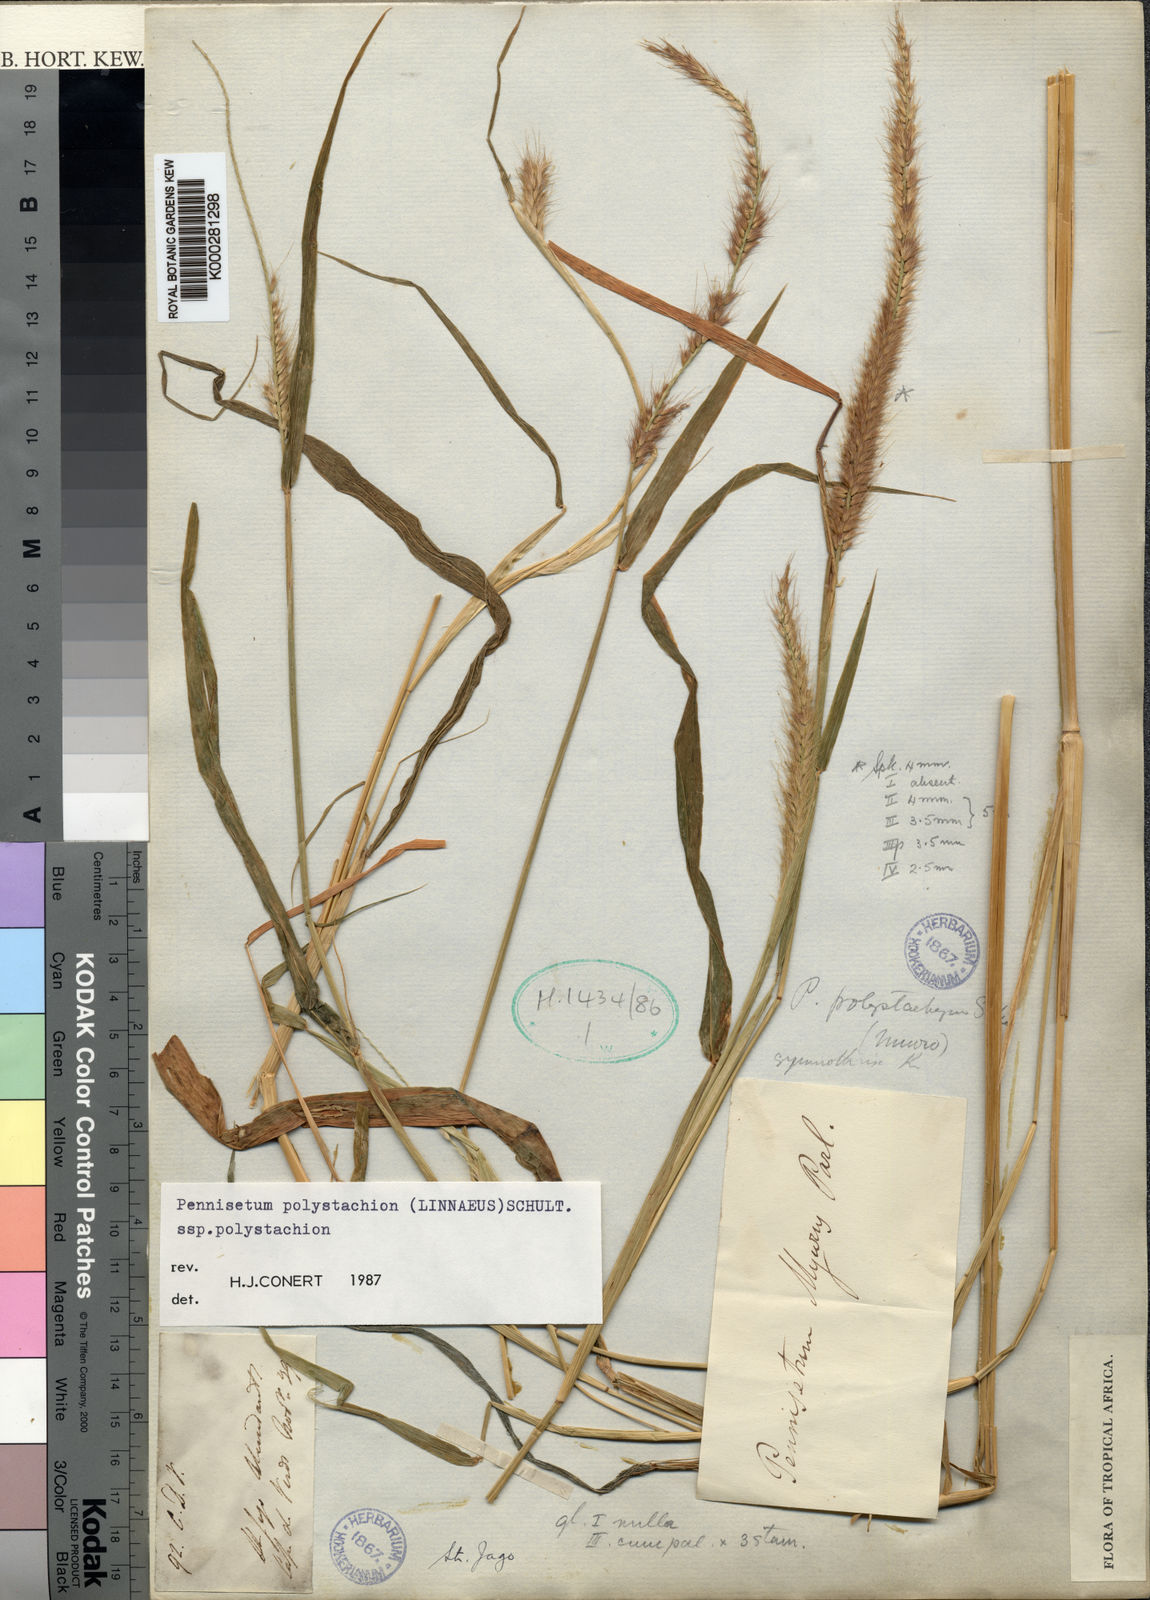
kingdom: Plantae
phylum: Tracheophyta
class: Liliopsida
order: Poales
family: Poaceae
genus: Setaria
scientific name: Setaria parviflora
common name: Knotroot bristle-grass
